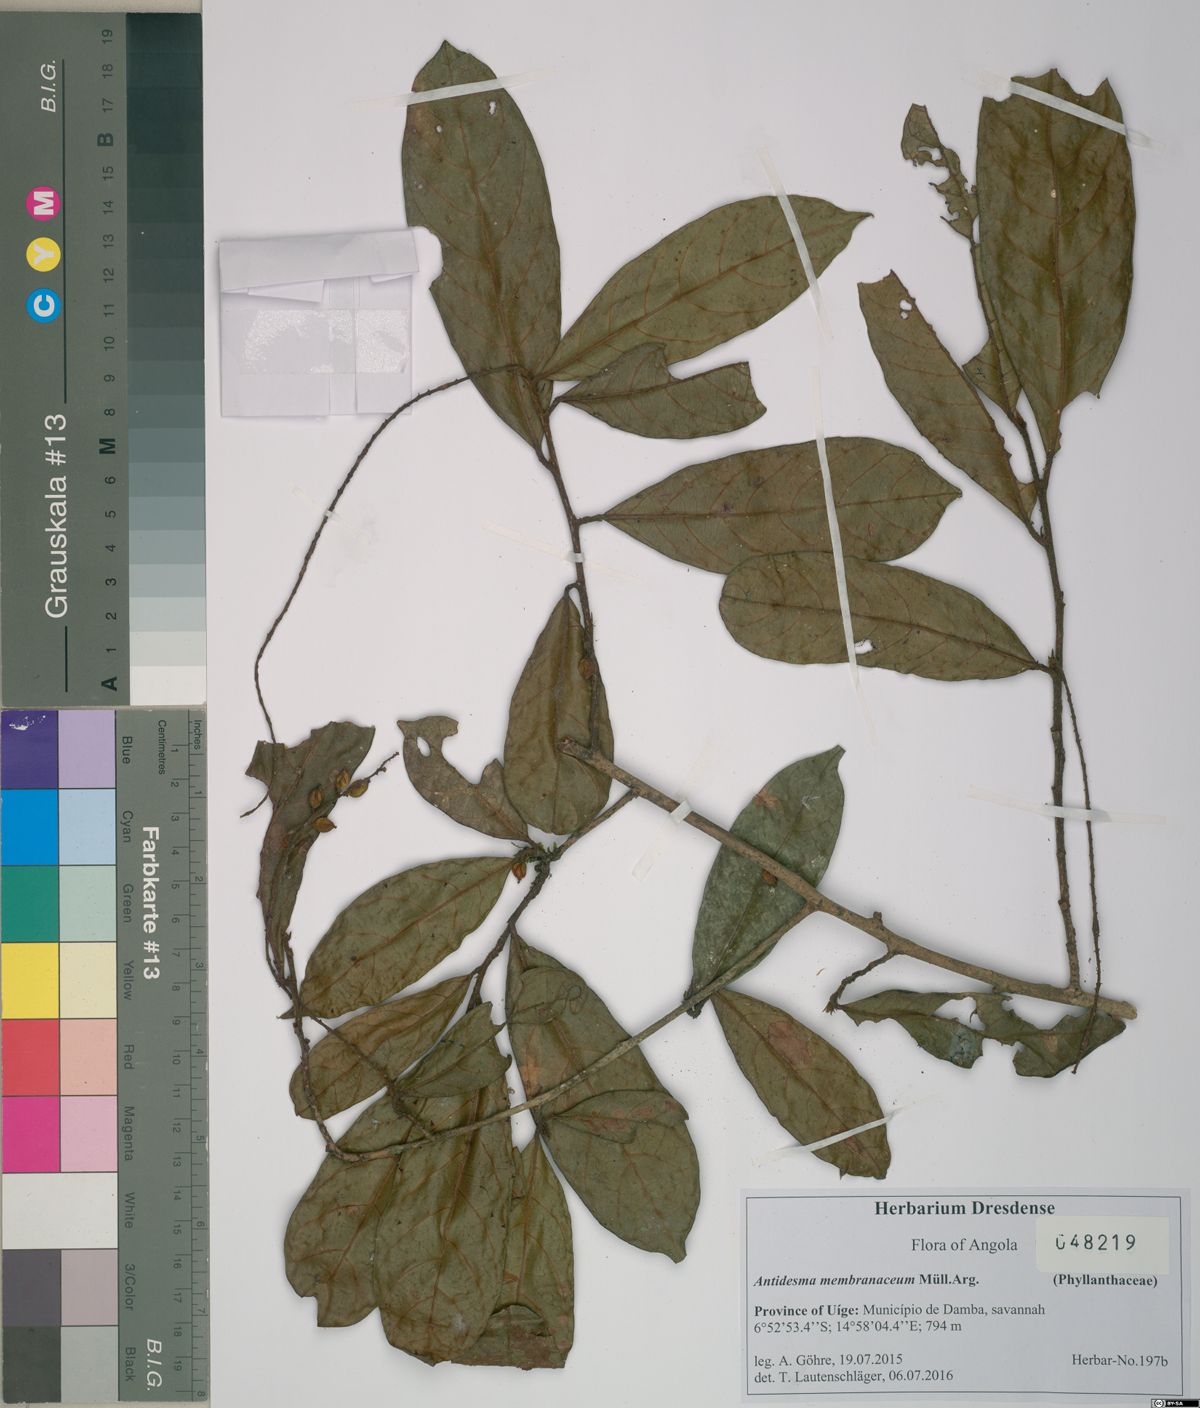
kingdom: Plantae
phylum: Tracheophyta
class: Magnoliopsida
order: Malpighiales
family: Phyllanthaceae
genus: Antidesma
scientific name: Antidesma vogelianum
